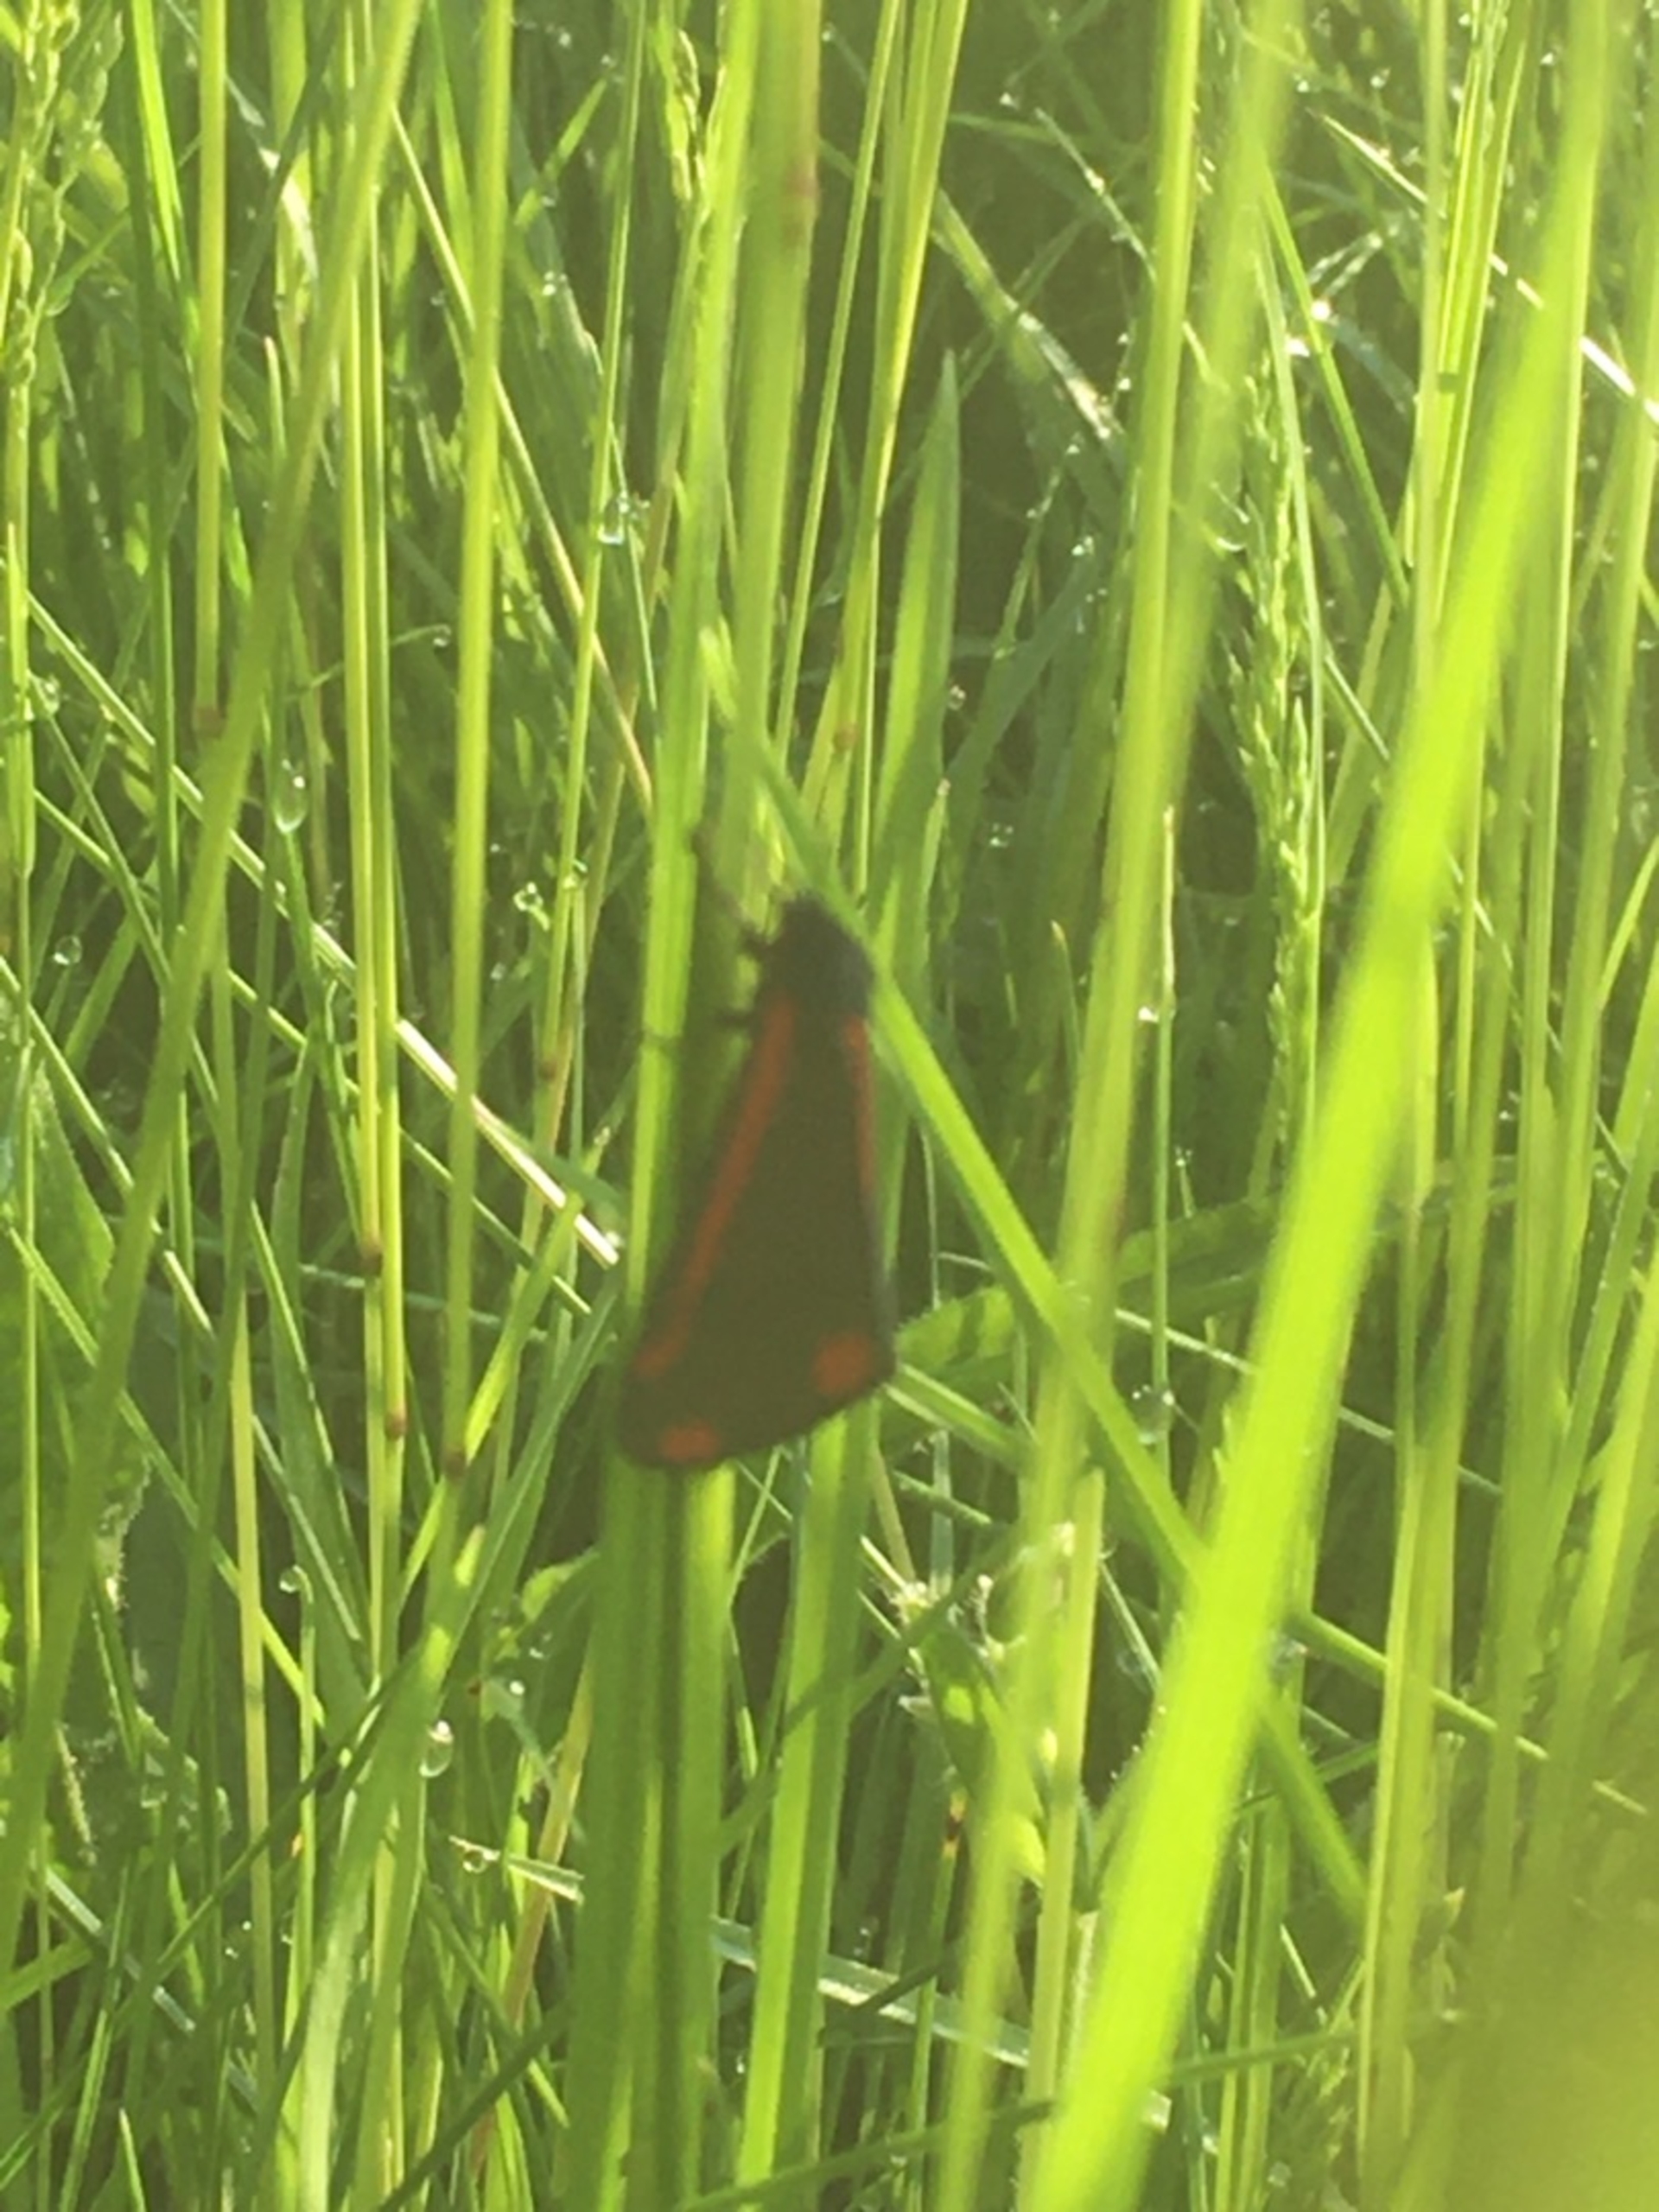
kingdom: Animalia
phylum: Arthropoda
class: Insecta
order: Lepidoptera
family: Erebidae
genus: Tyria
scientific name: Tyria jacobaeae
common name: Blodplet
